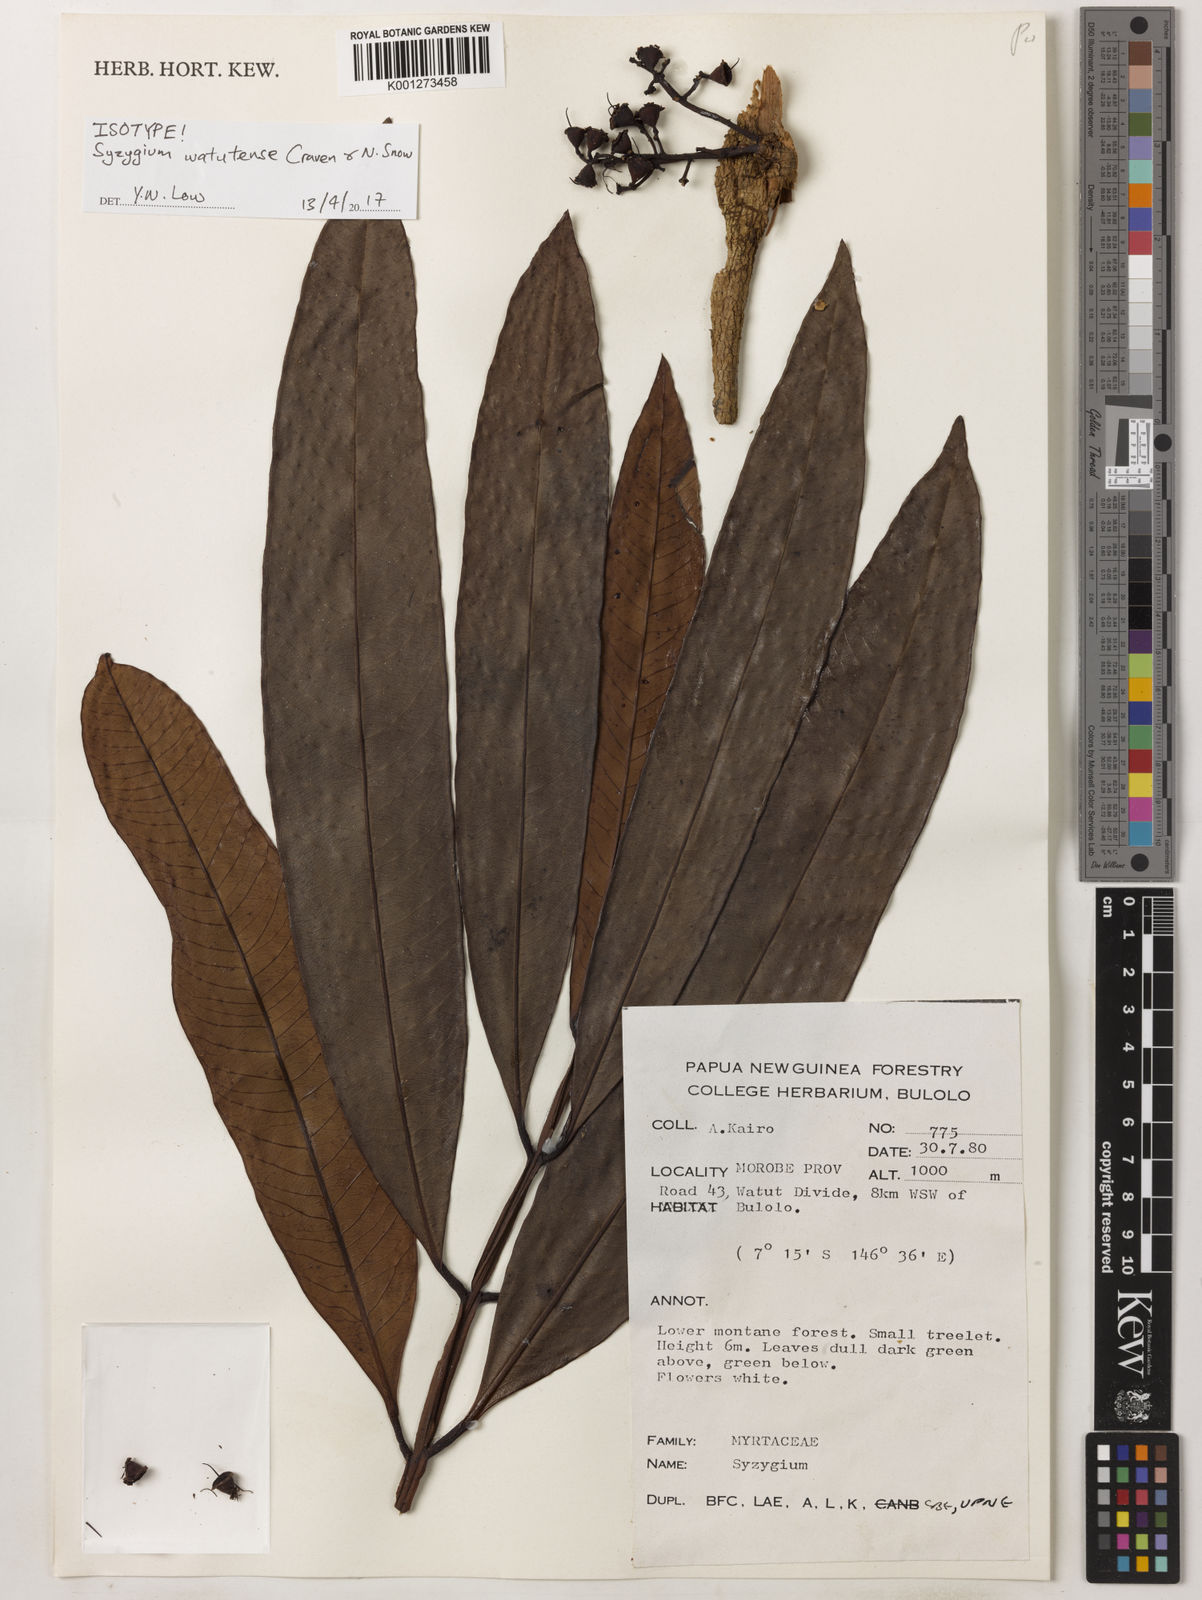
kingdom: Plantae
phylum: Tracheophyta
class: Magnoliopsida
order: Myrtales
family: Myrtaceae
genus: Syzygium
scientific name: Syzygium watutense
